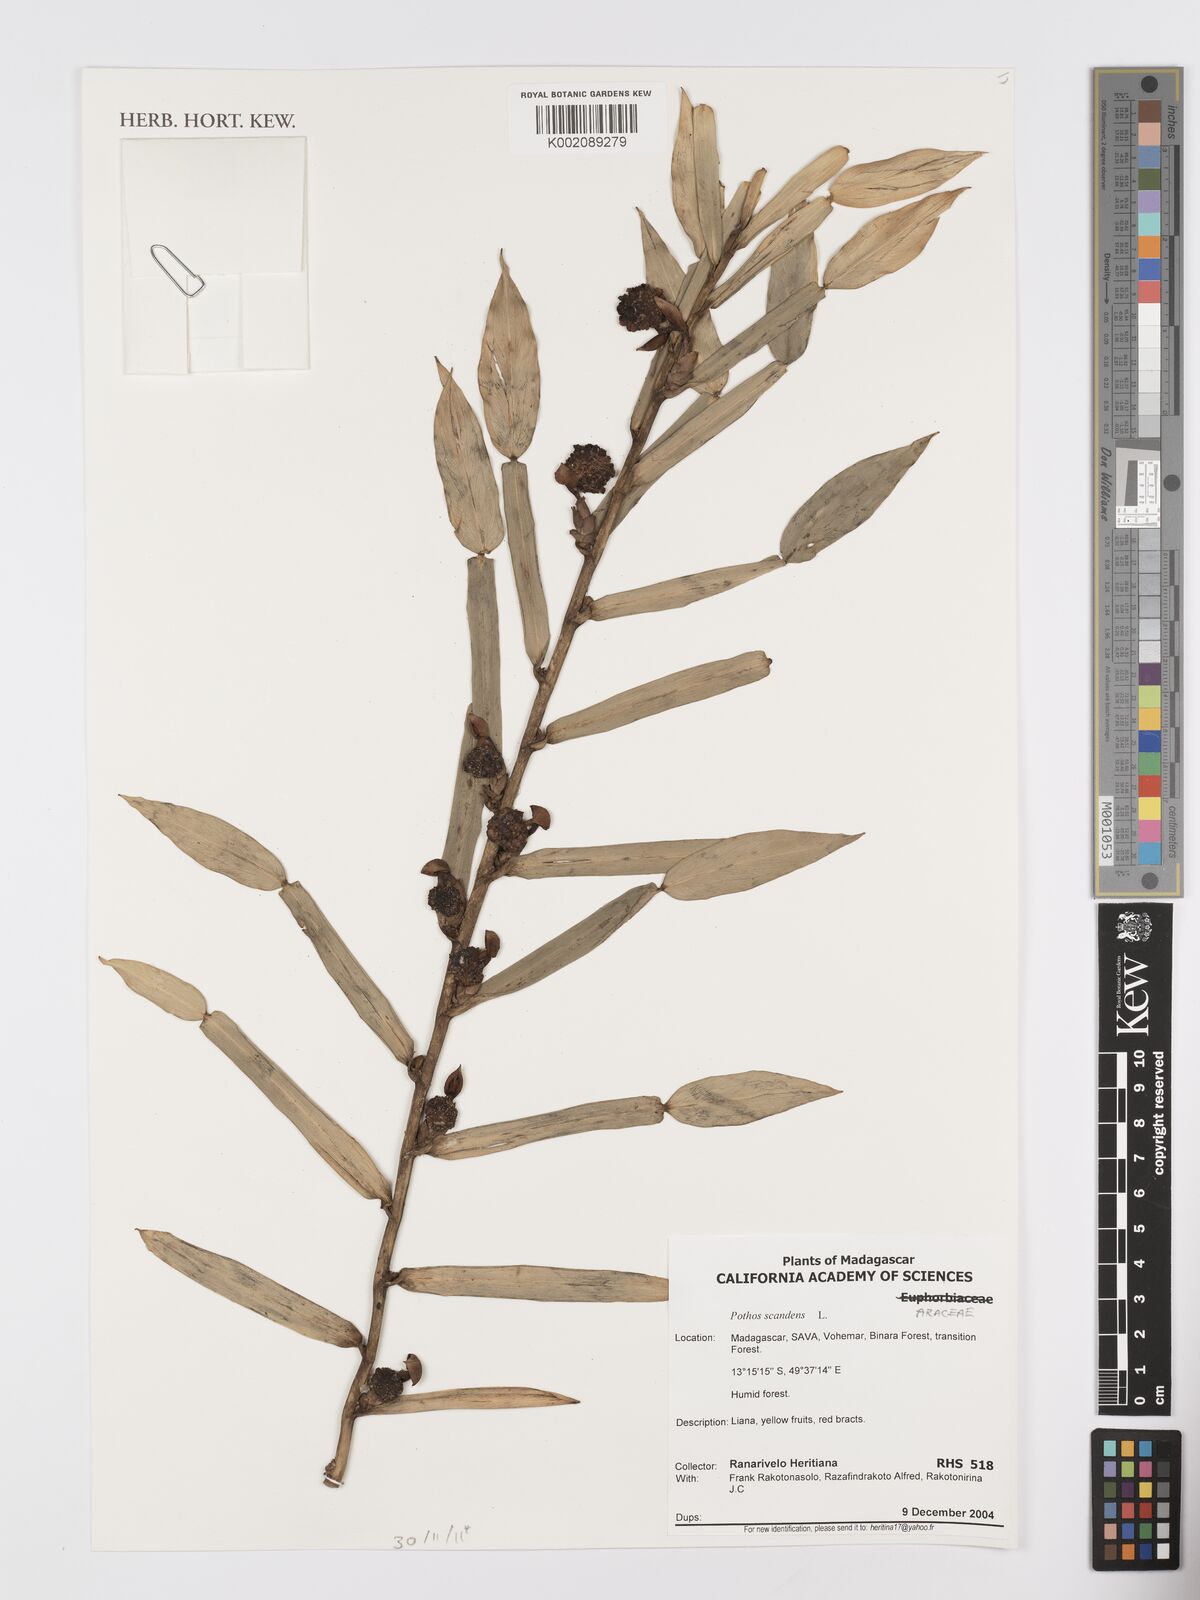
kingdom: Plantae
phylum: Tracheophyta
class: Liliopsida
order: Alismatales
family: Araceae
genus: Pothos
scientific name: Pothos scandens
